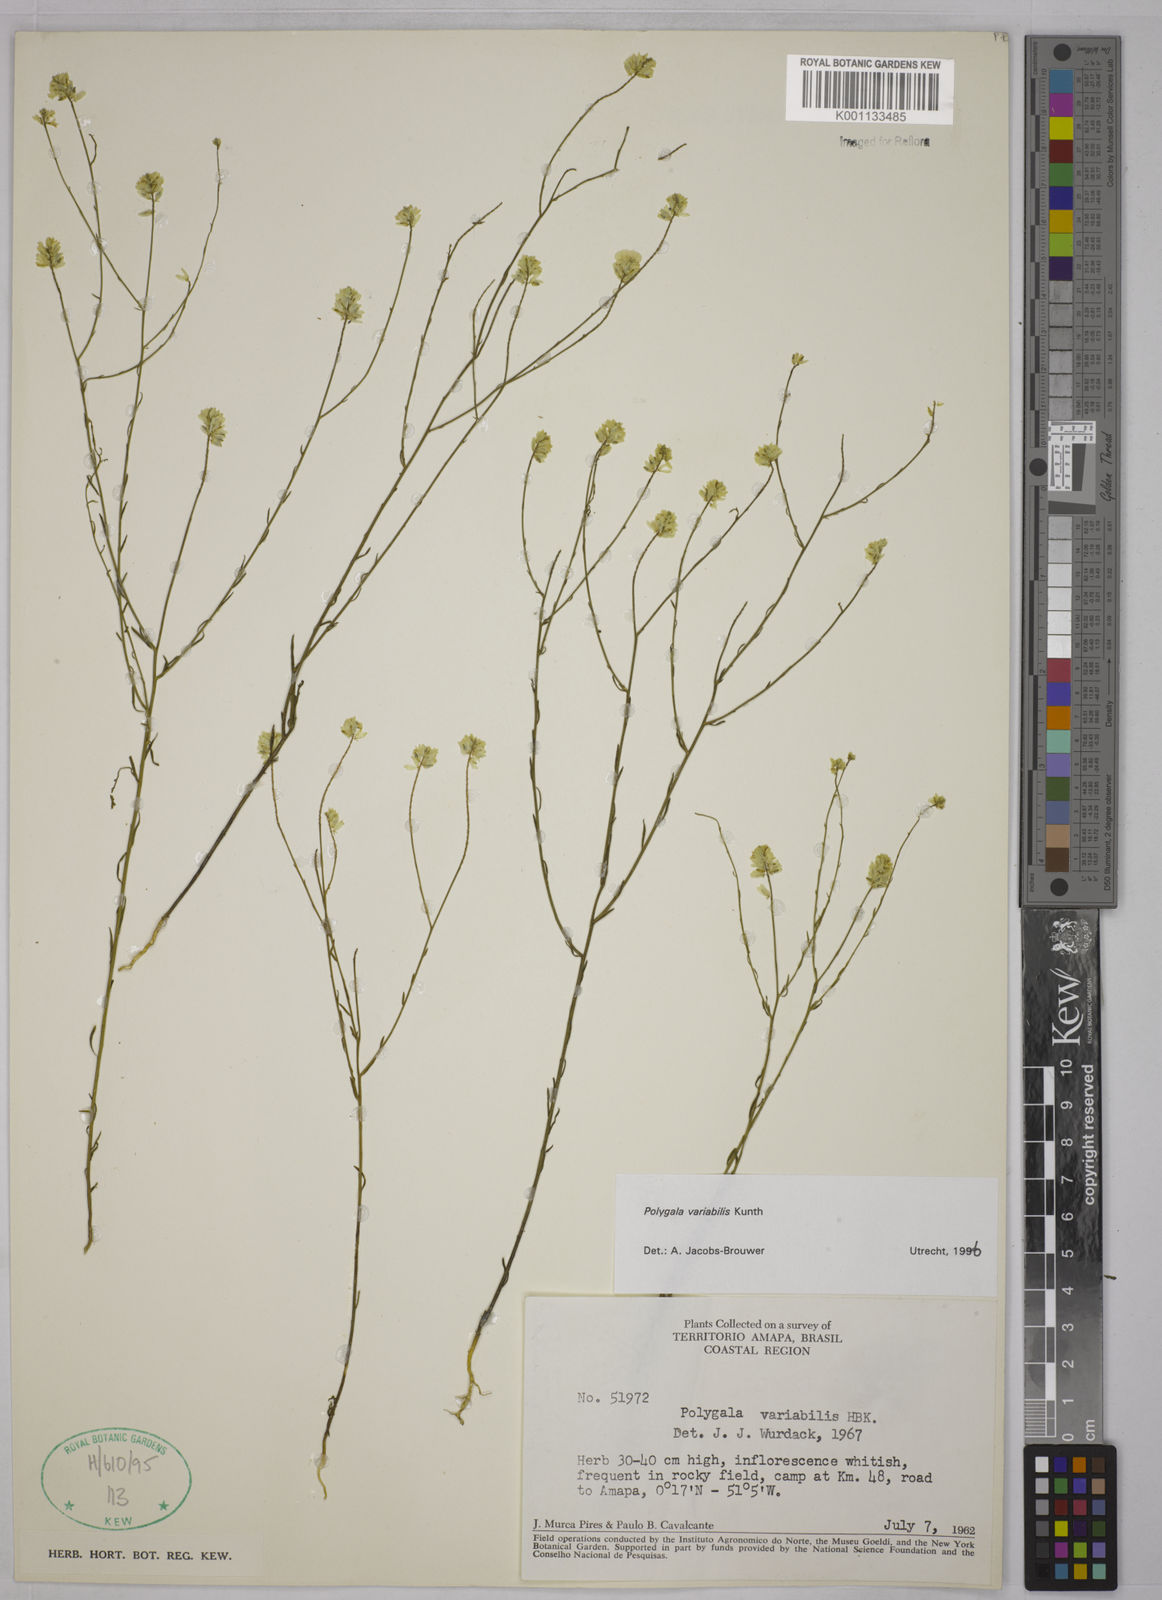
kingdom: Plantae
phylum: Tracheophyta
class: Magnoliopsida
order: Fabales
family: Polygalaceae
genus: Polygala
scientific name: Polygala trichosperma
